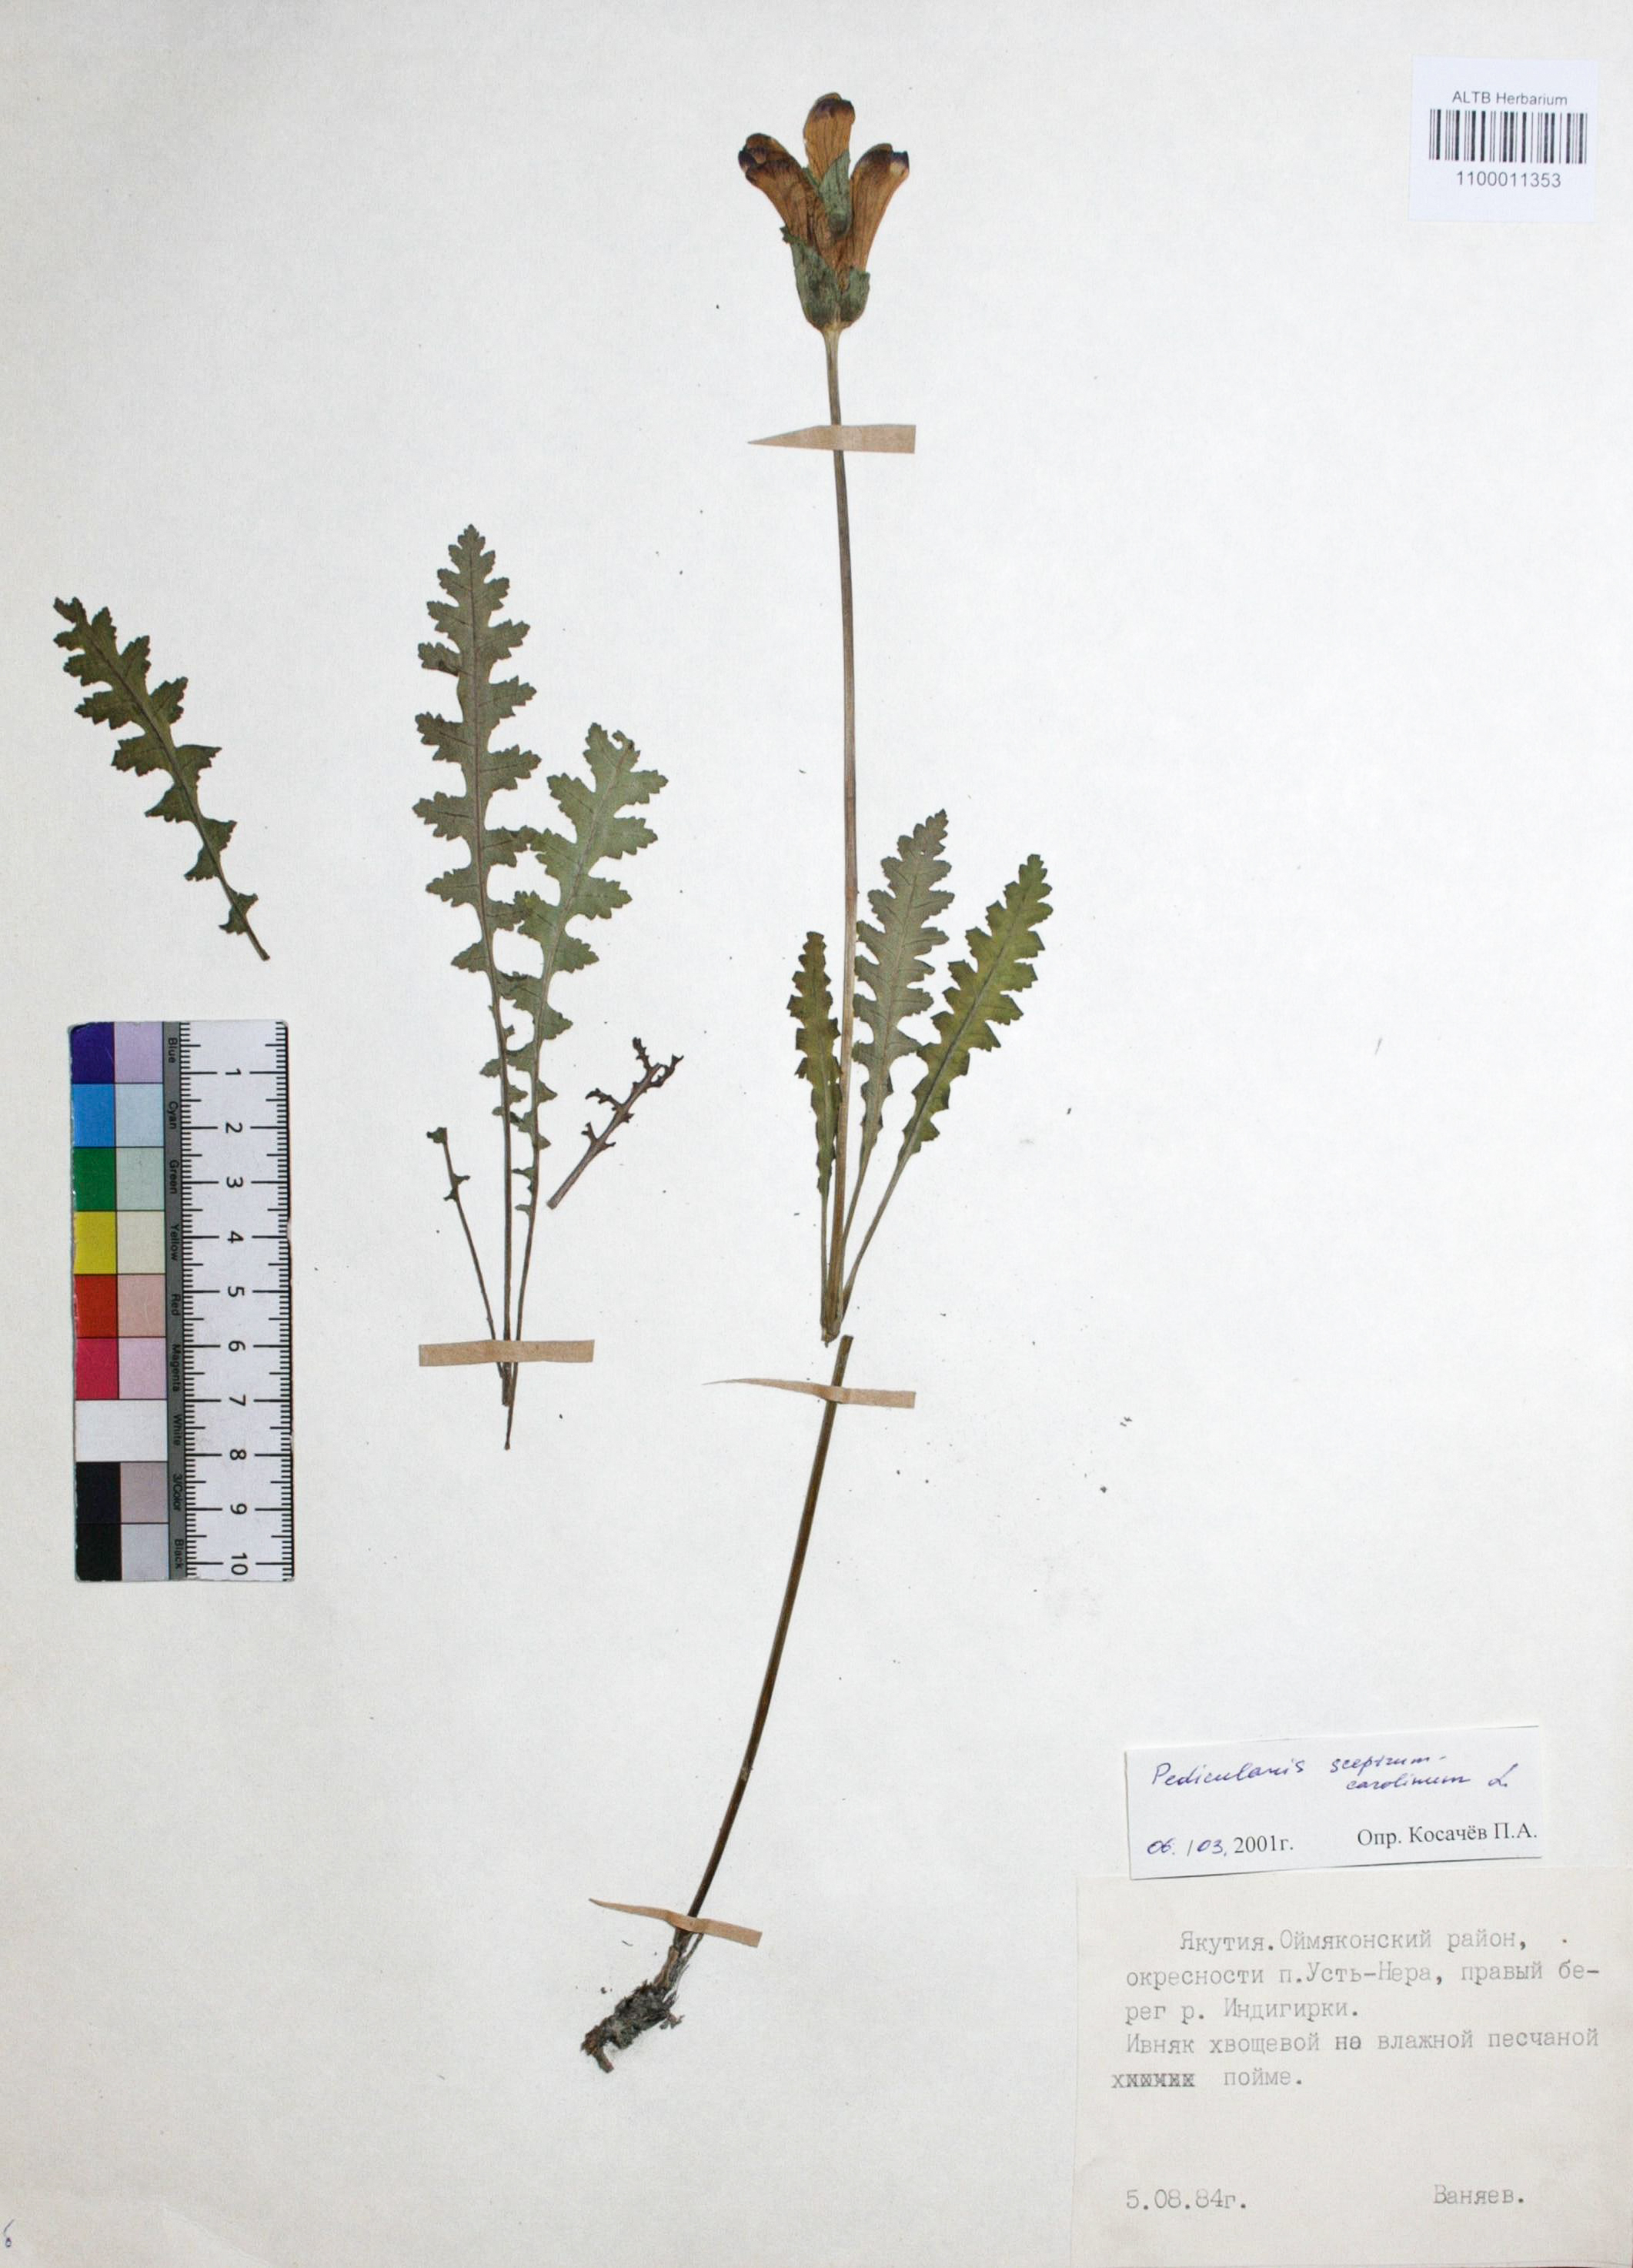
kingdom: Plantae
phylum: Tracheophyta
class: Magnoliopsida
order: Lamiales
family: Orobanchaceae
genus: Pedicularis
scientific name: Pedicularis sceptrum-carolinum
